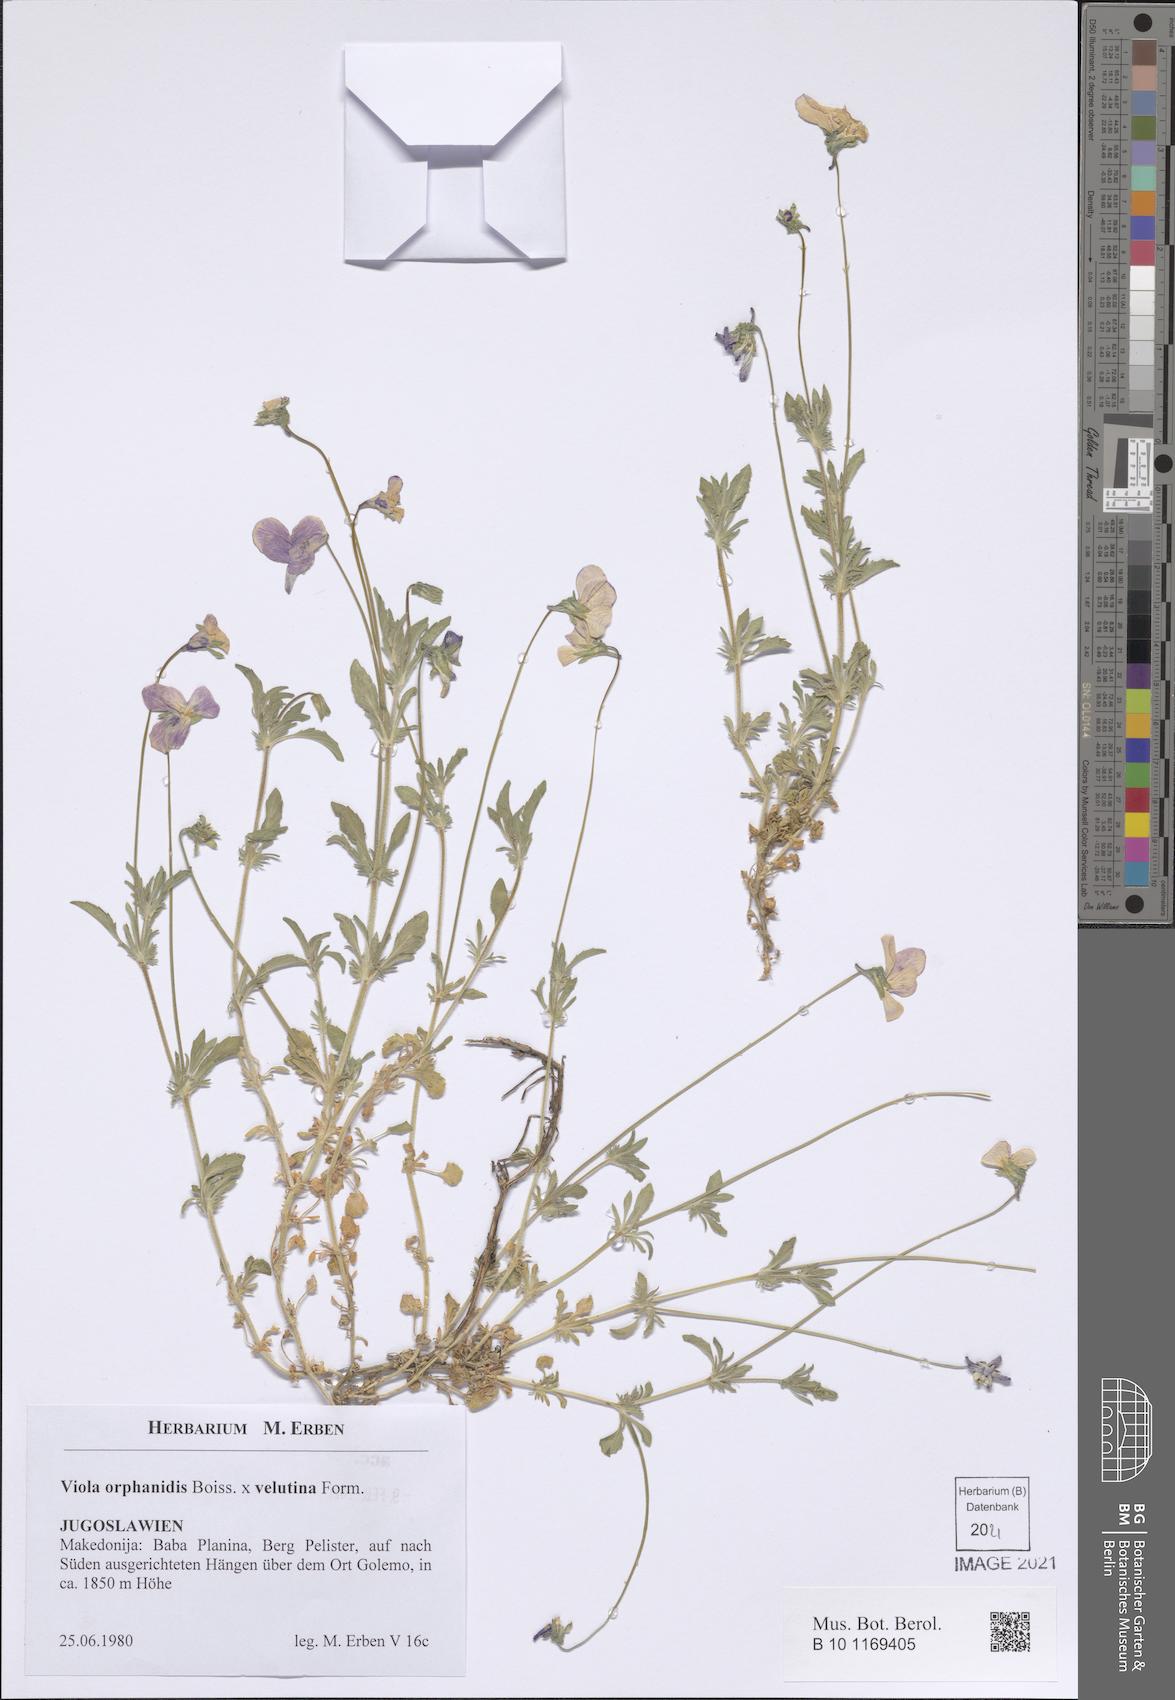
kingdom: Plantae
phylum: Tracheophyta
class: Magnoliopsida
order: Malpighiales
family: Violaceae
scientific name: Violaceae
